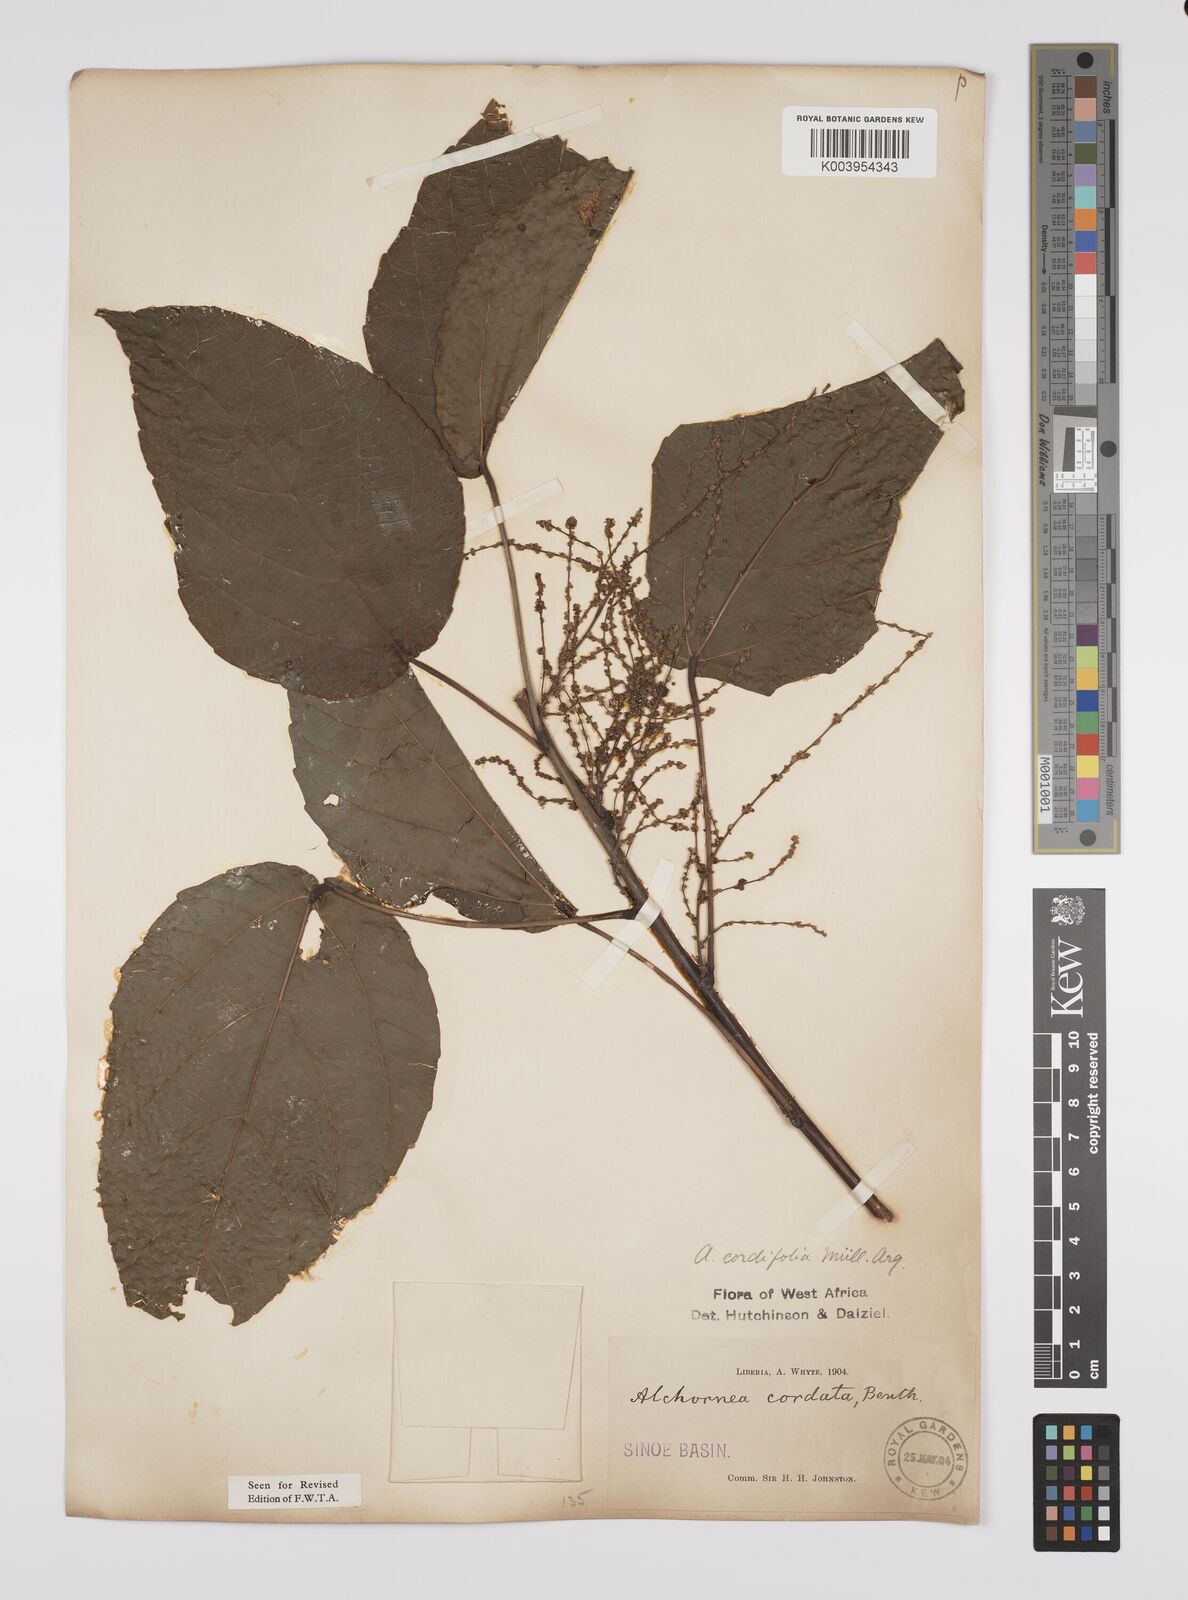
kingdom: Plantae
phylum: Tracheophyta
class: Magnoliopsida
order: Malpighiales
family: Euphorbiaceae
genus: Alchornea
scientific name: Alchornea cordifolia
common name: Christmasbush
